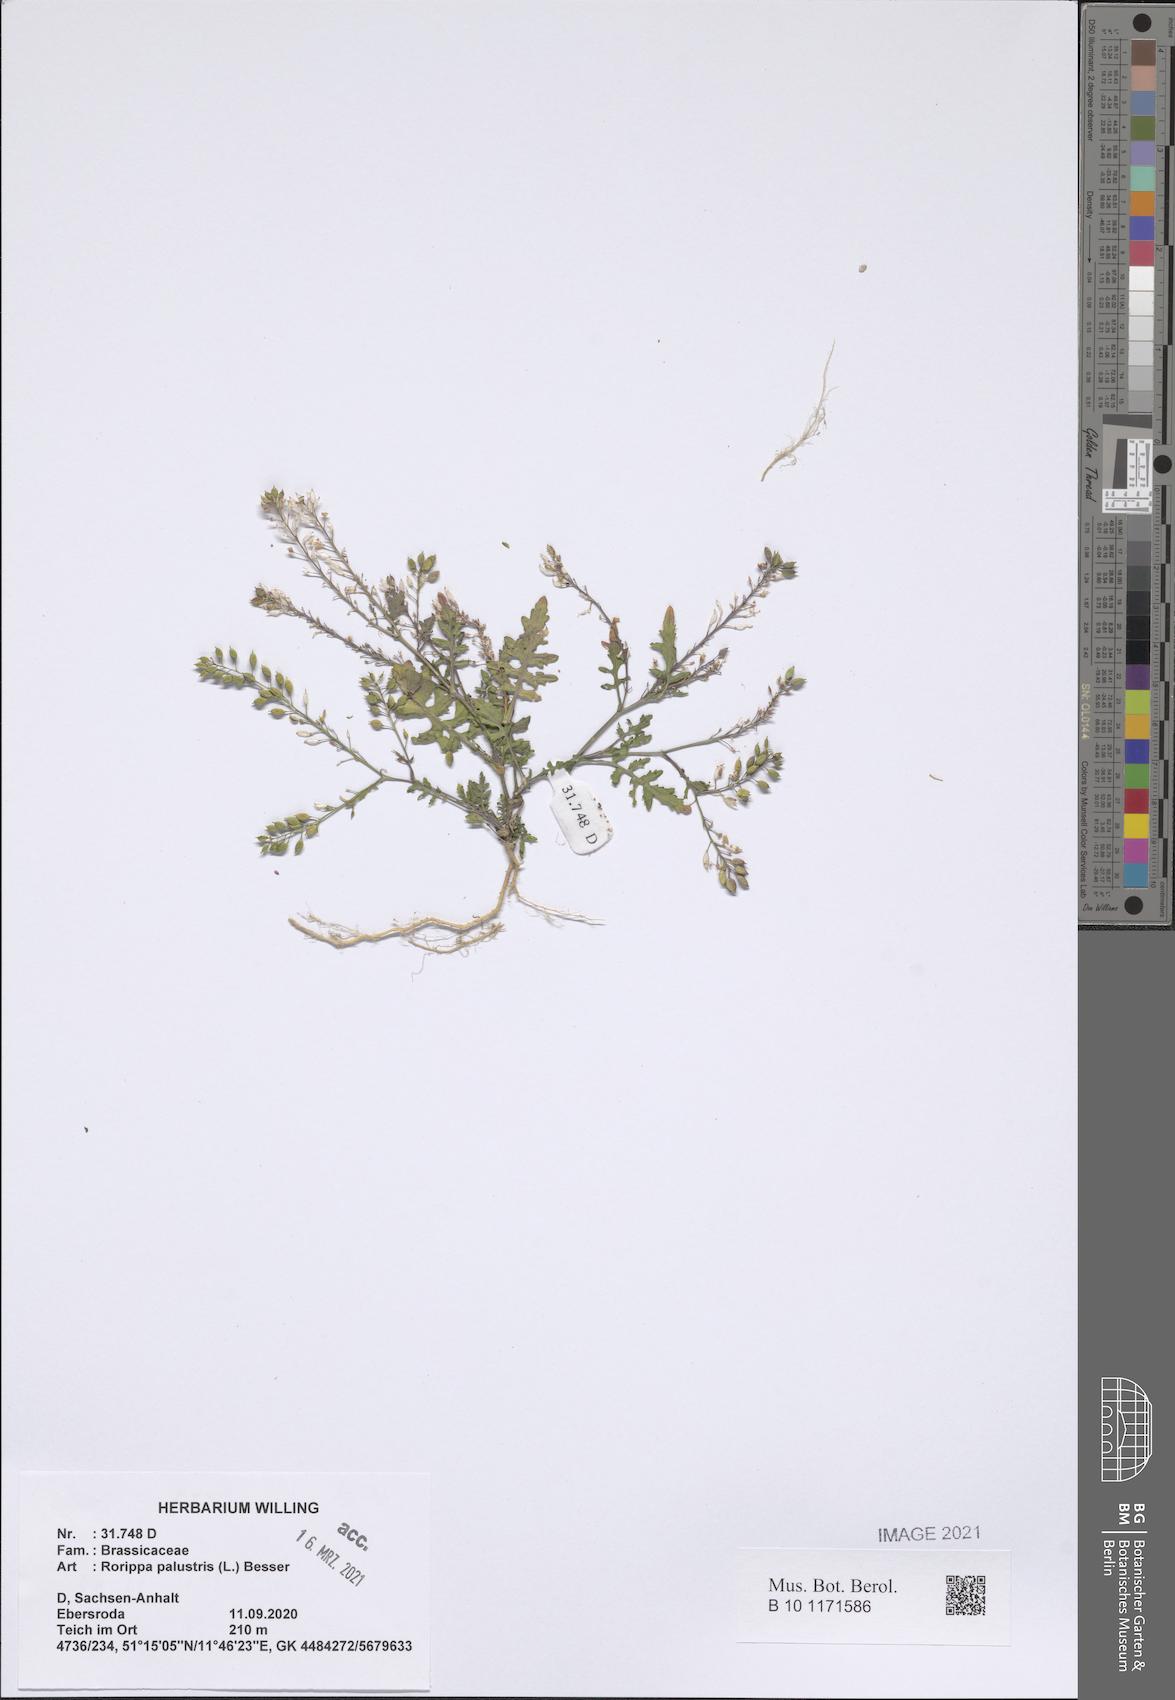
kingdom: Plantae
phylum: Tracheophyta
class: Magnoliopsida
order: Brassicales
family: Brassicaceae
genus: Rorippa
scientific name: Rorippa palustris
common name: Marsh yellow-cress
